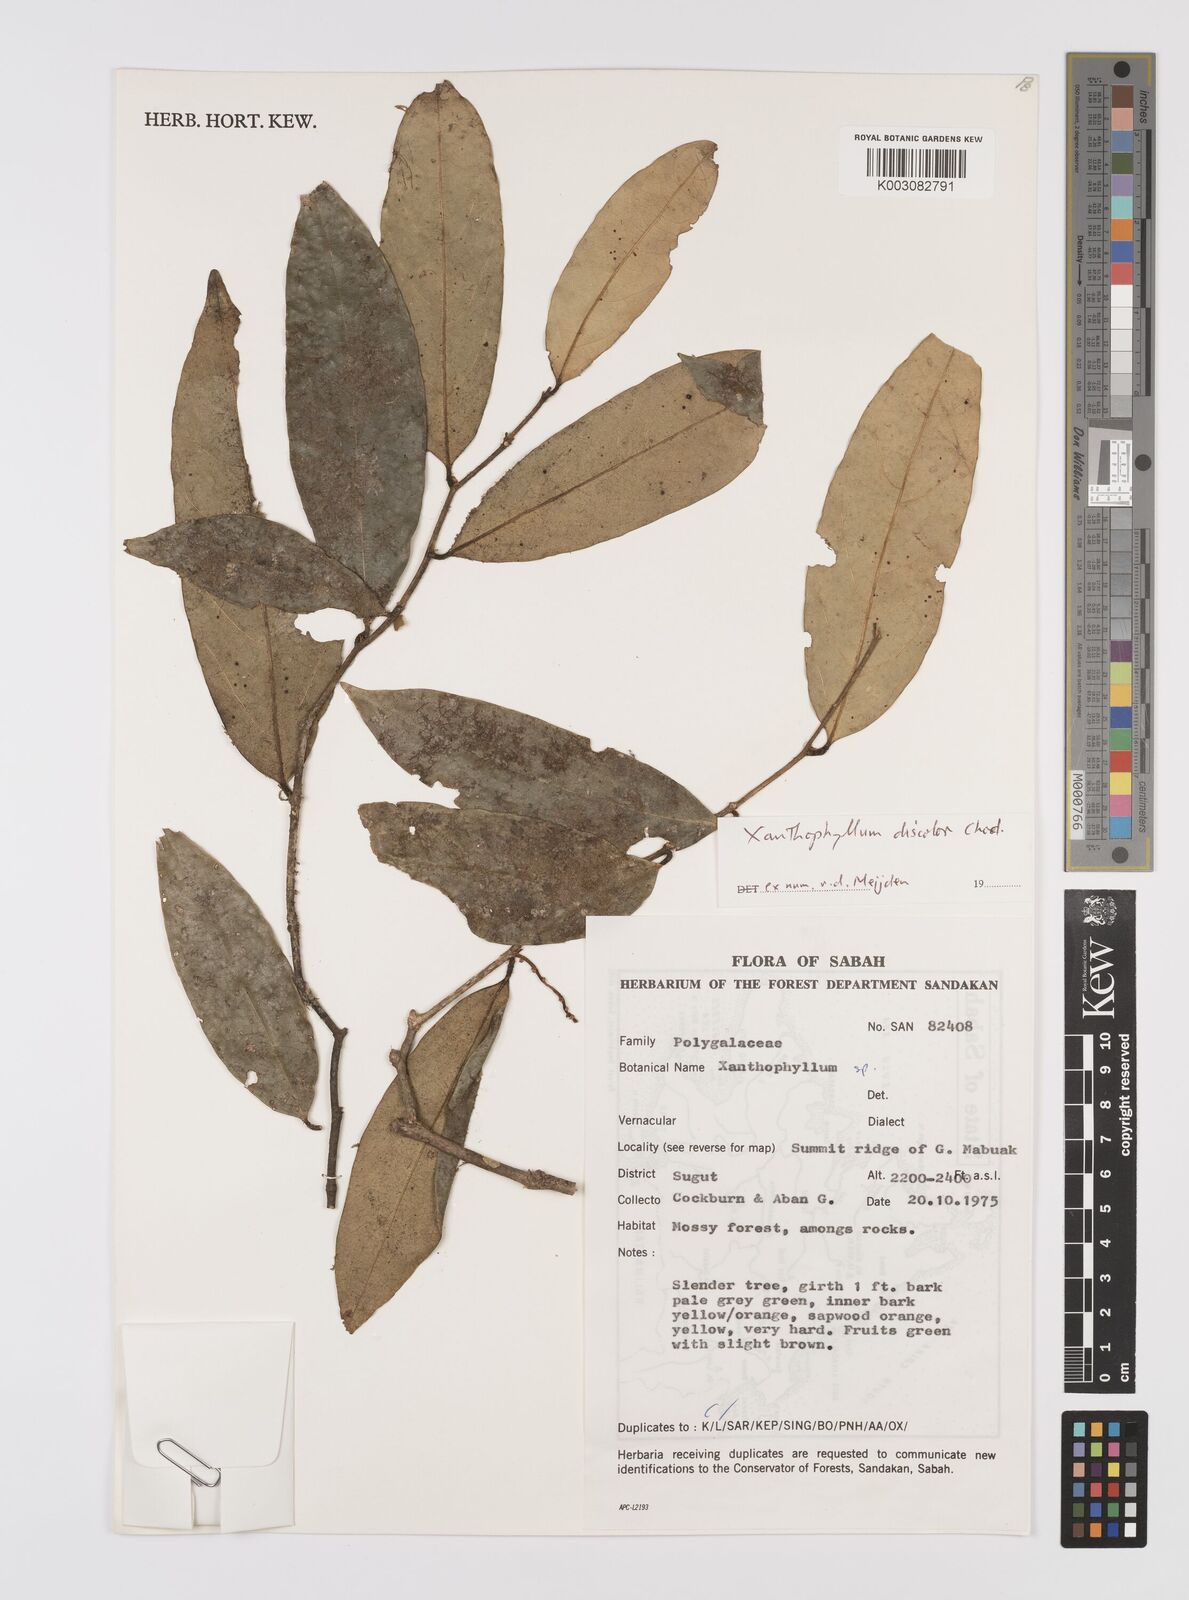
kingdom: Plantae
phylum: Tracheophyta
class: Magnoliopsida
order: Fabales
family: Polygalaceae
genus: Xanthophyllum
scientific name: Xanthophyllum discolor
